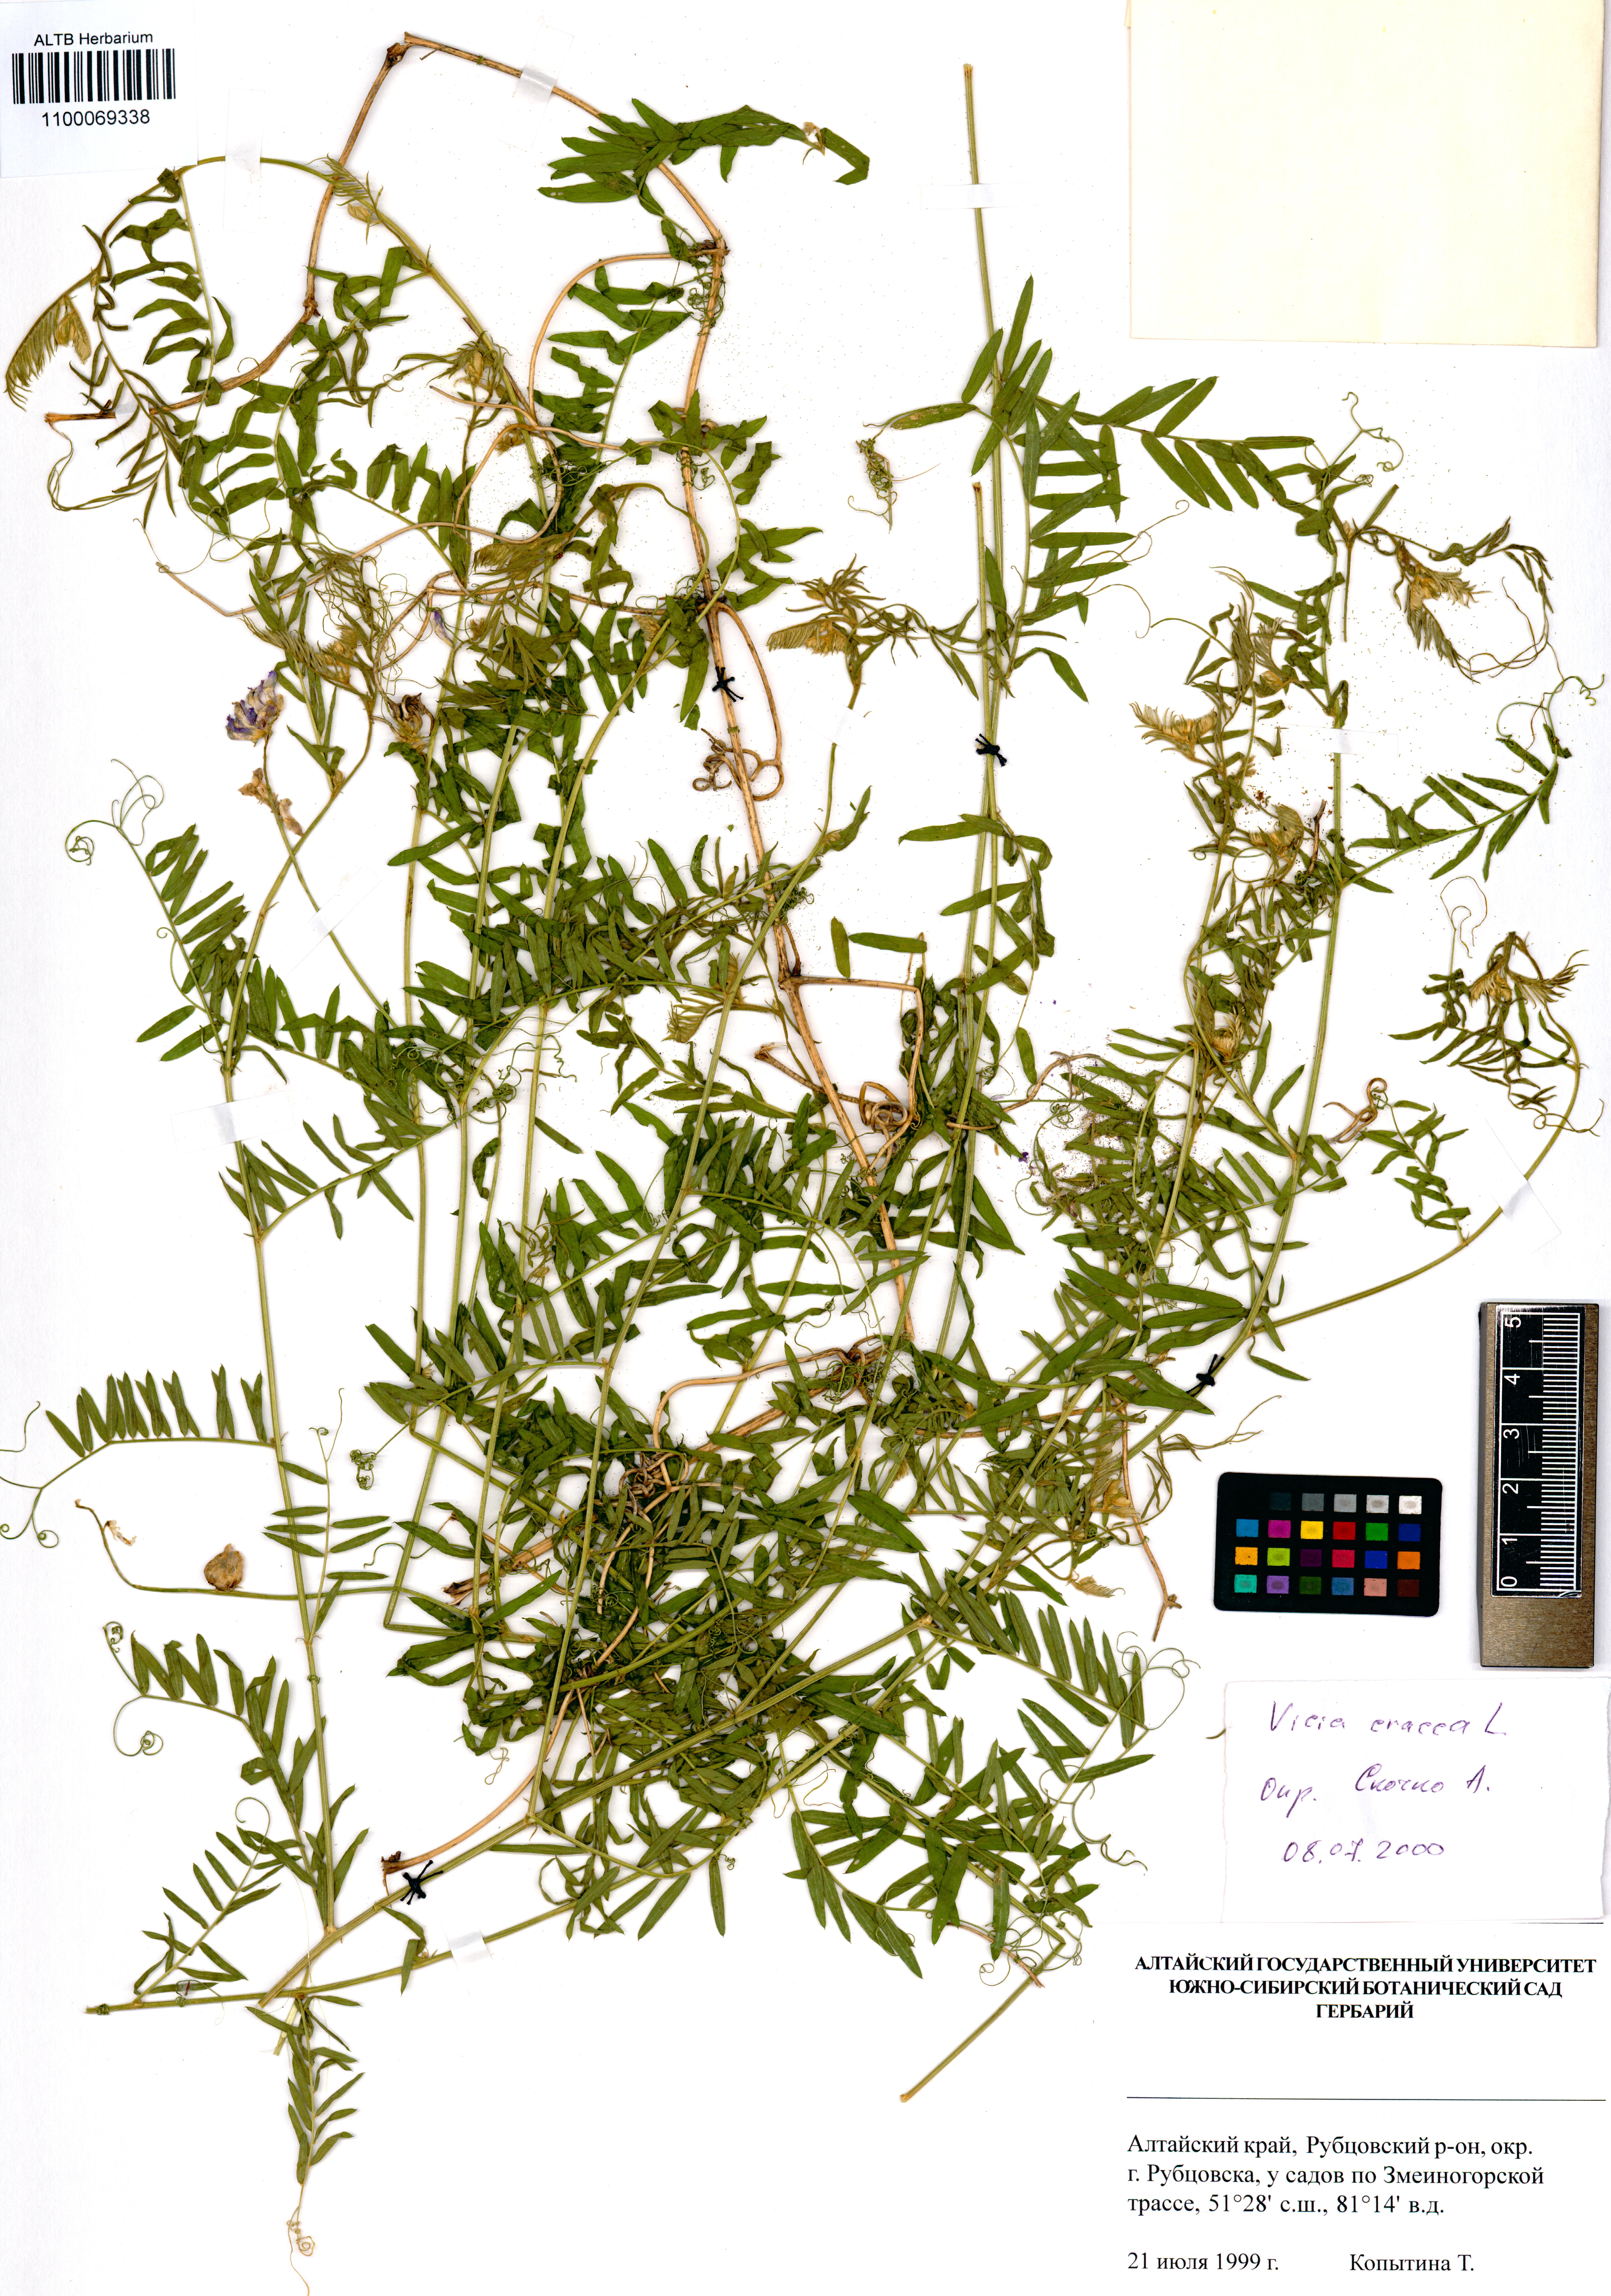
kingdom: Plantae
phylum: Tracheophyta
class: Magnoliopsida
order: Fabales
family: Fabaceae
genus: Vicia
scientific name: Vicia cracca
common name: Bird vetch
